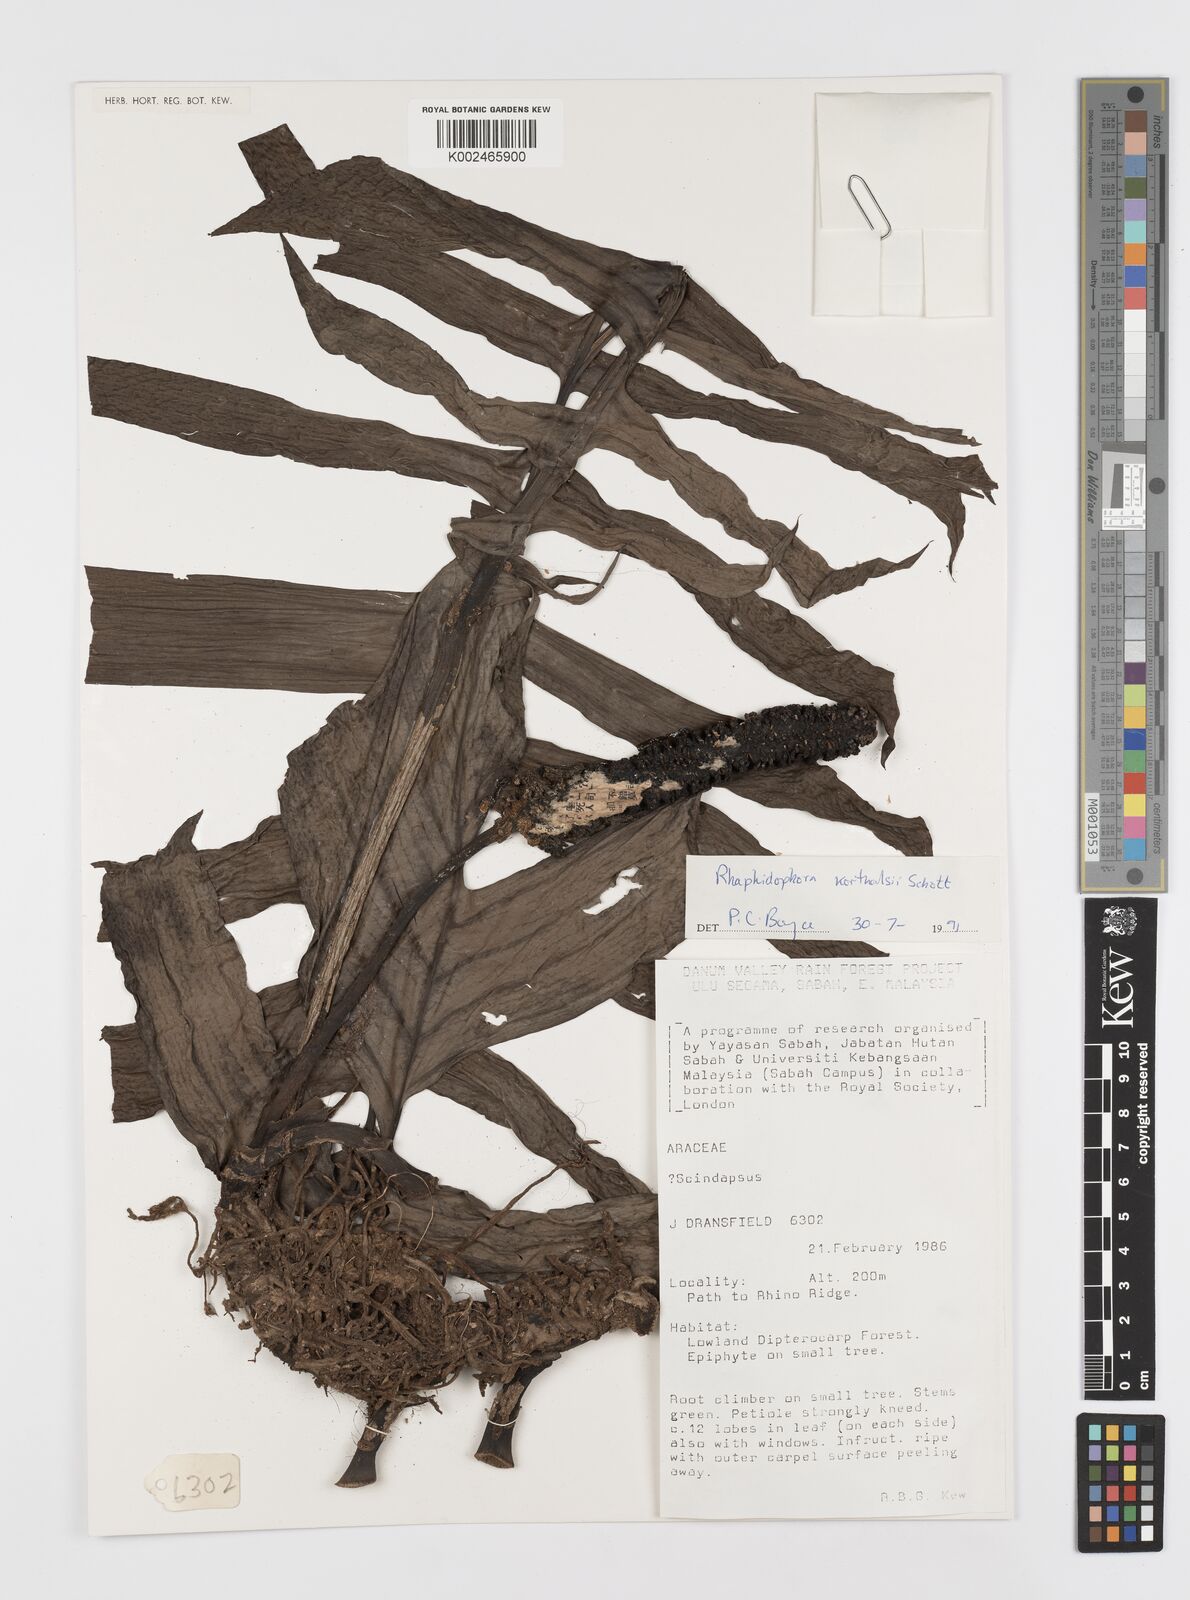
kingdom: Plantae
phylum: Tracheophyta
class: Liliopsida
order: Alismatales
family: Araceae
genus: Rhaphidophora
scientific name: Rhaphidophora korthalsii
